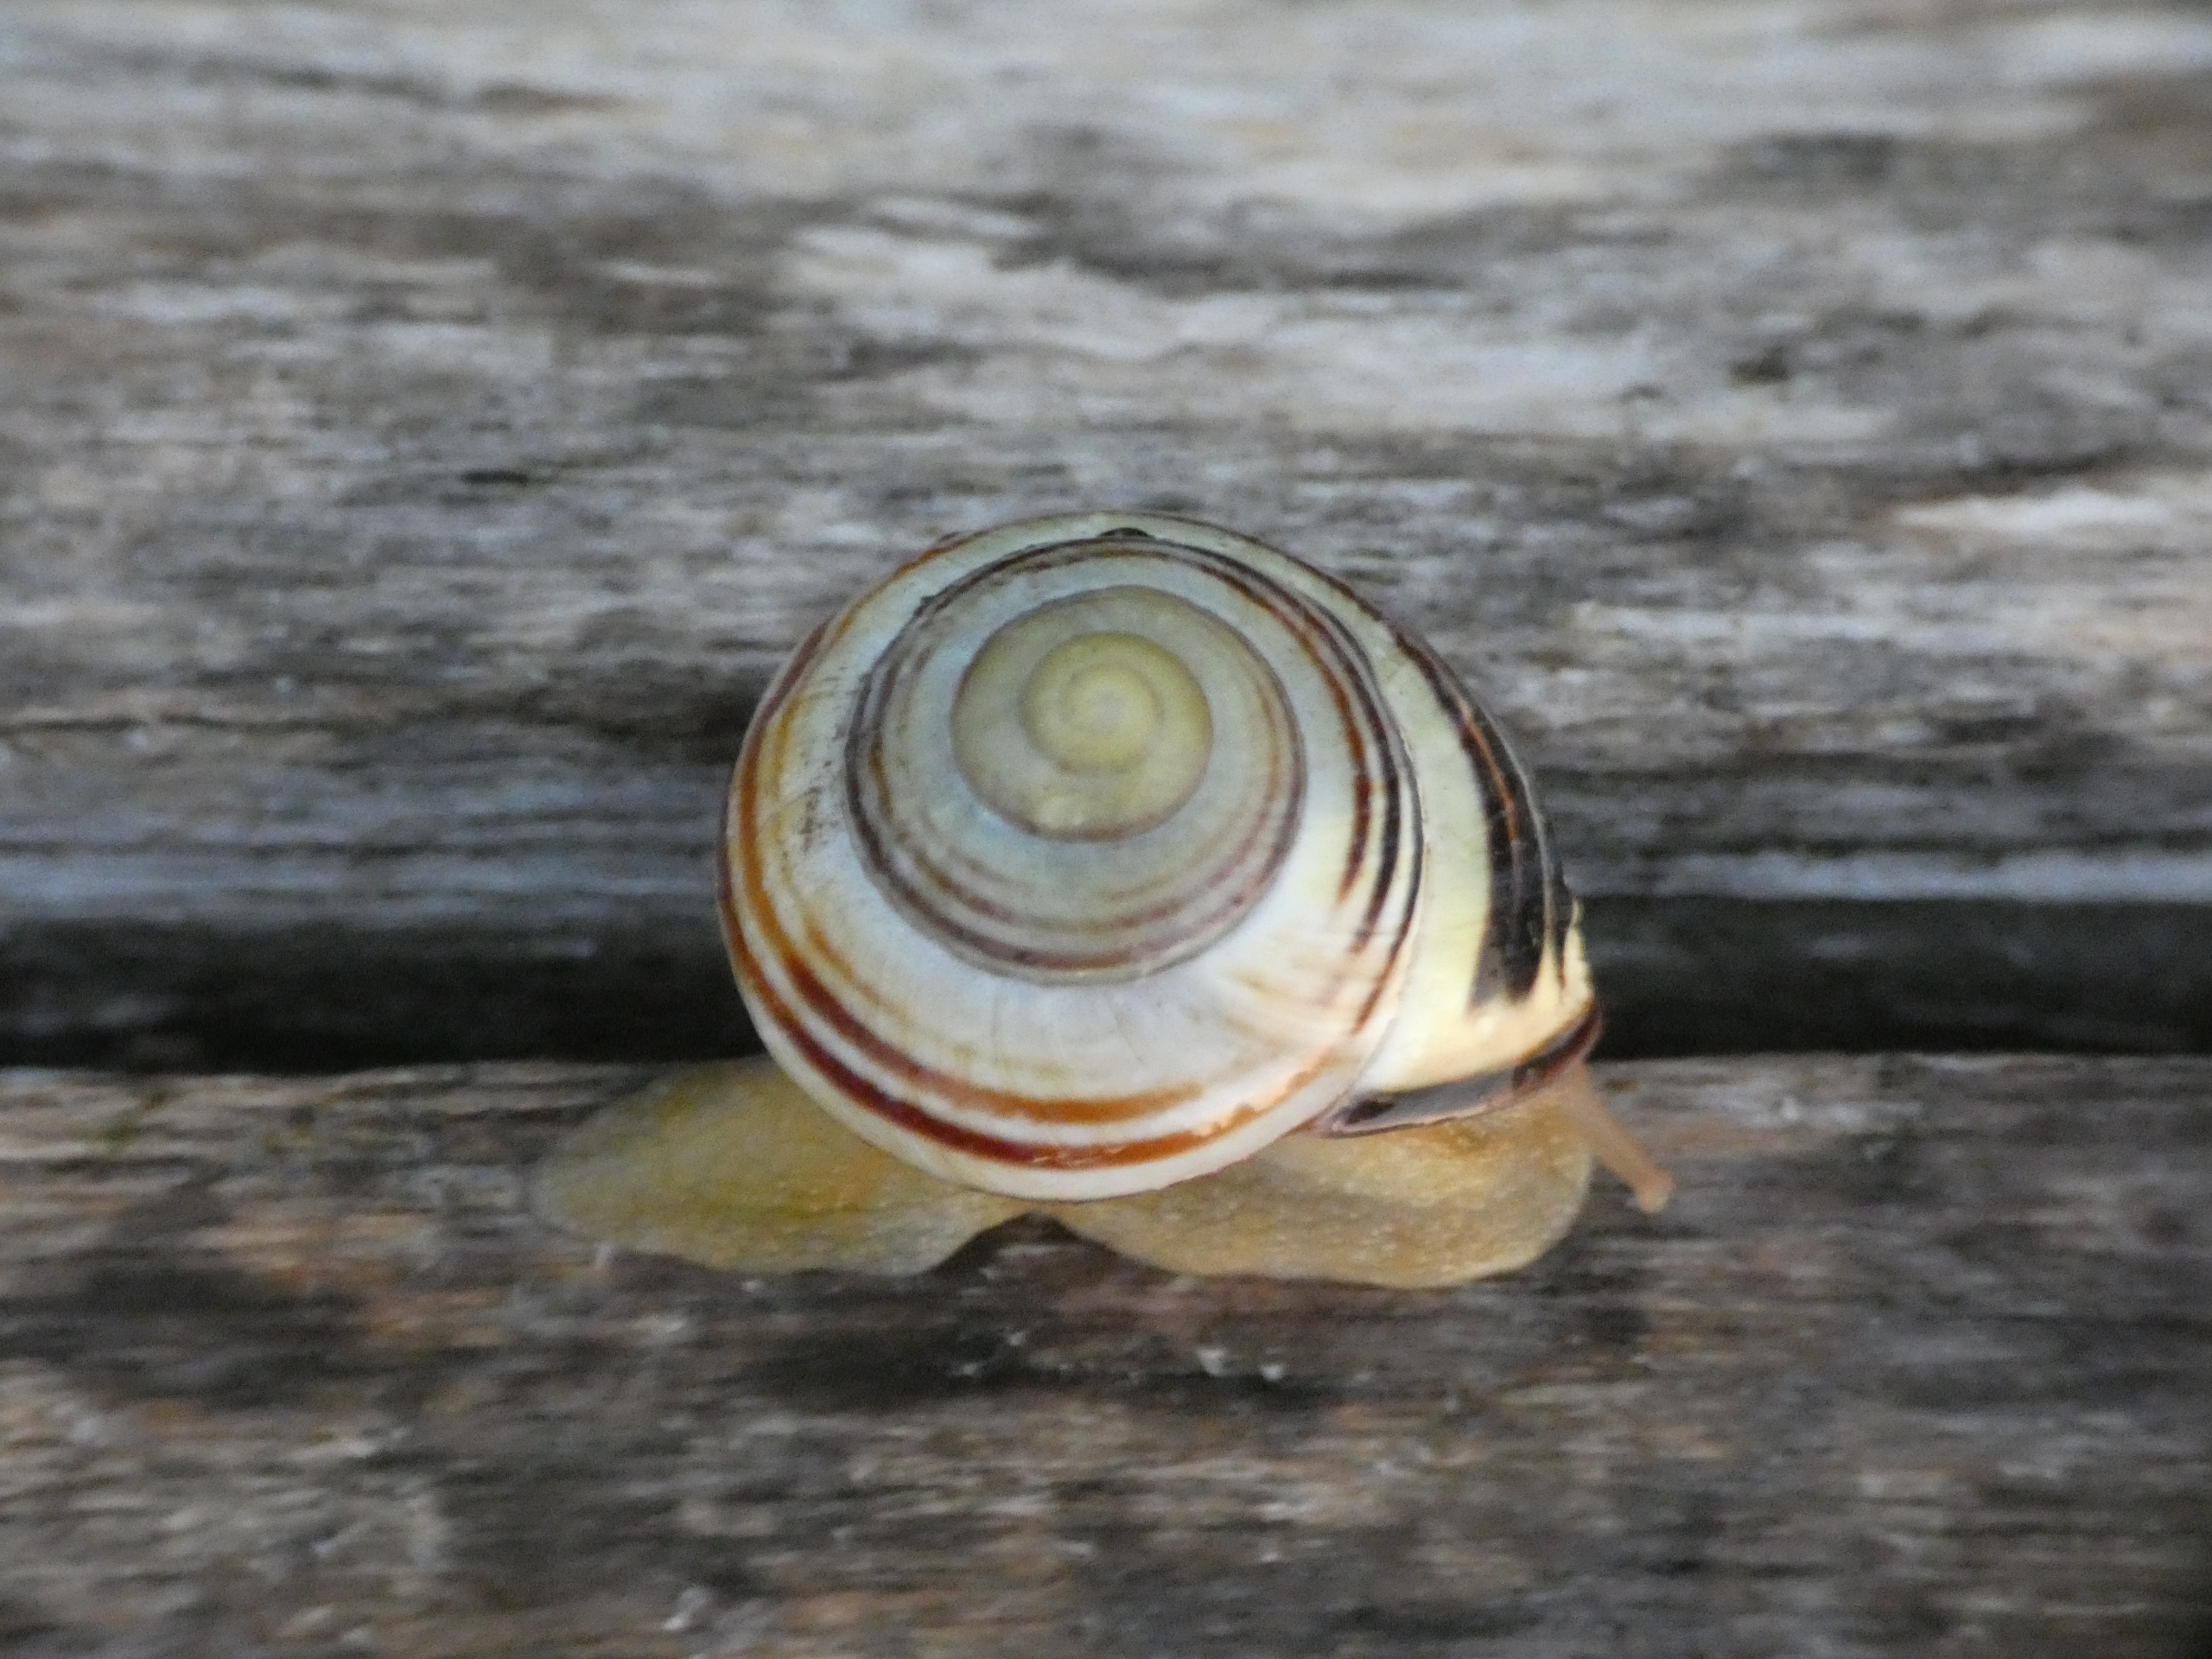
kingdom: Animalia
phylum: Mollusca
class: Gastropoda
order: Stylommatophora
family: Helicidae
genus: Cepaea
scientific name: Cepaea nemoralis
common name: Lundsnegl
